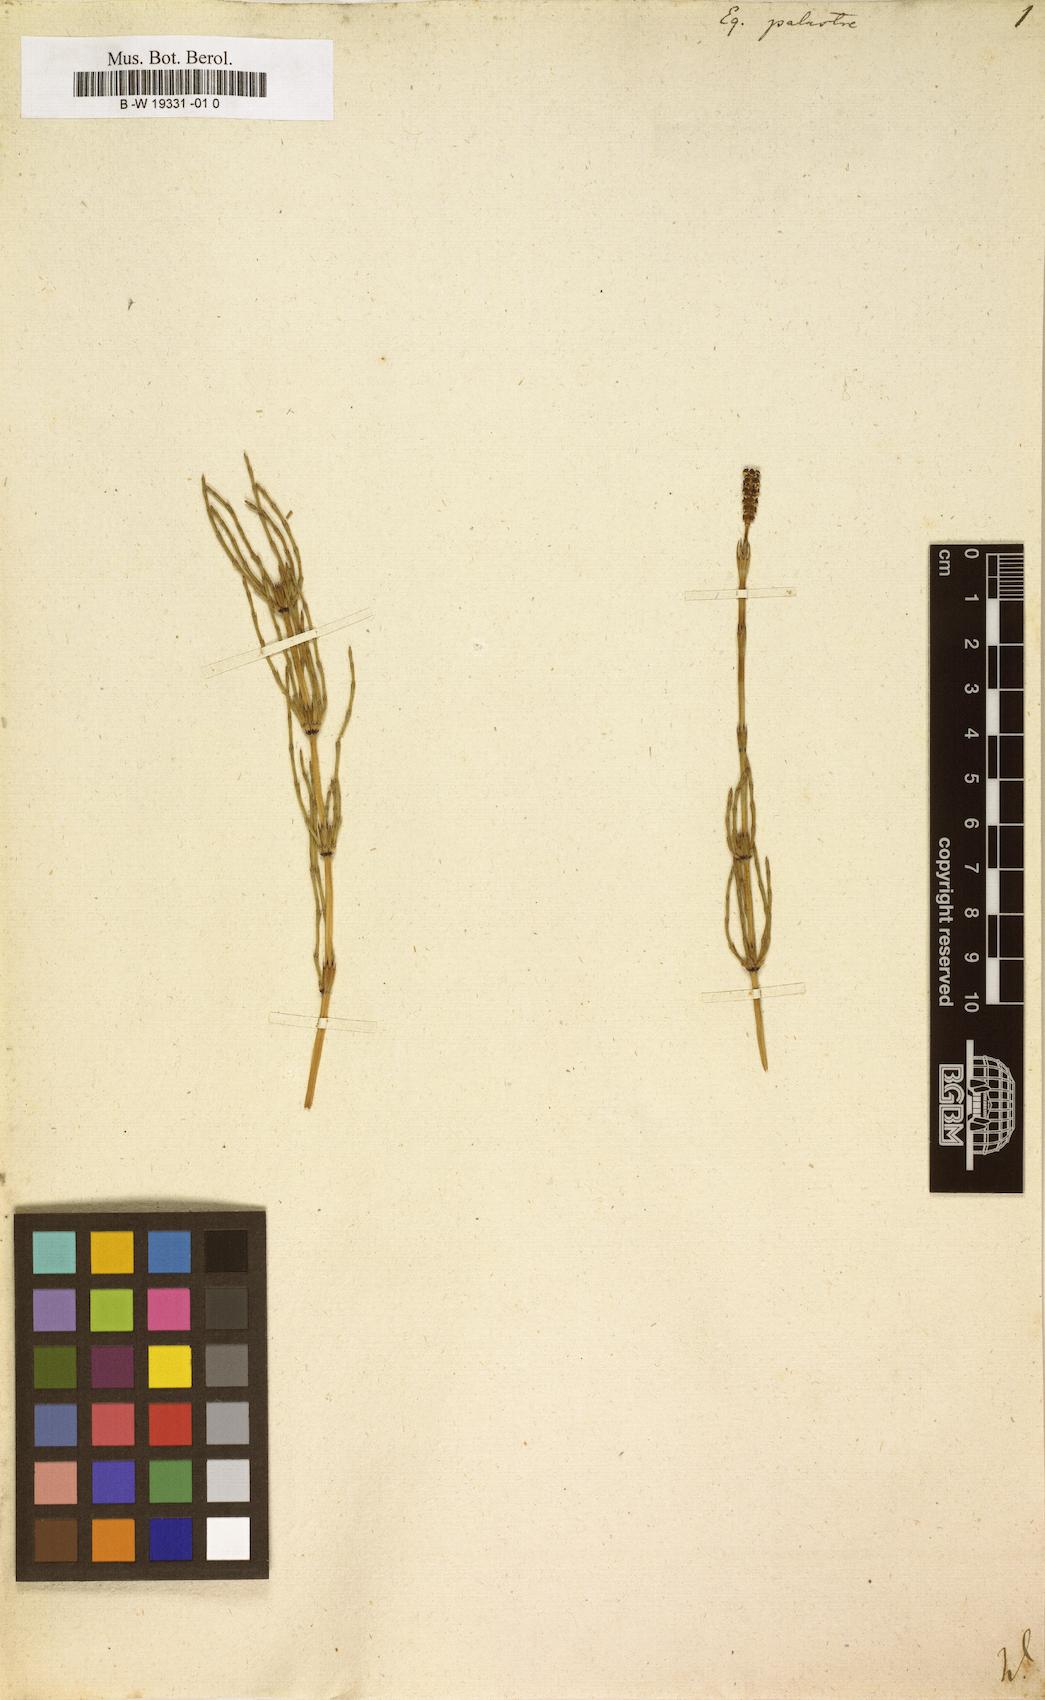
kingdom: Plantae
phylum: Tracheophyta
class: Polypodiopsida
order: Equisetales
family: Equisetaceae
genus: Equisetum
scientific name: Equisetum palustre
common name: Marsh horsetail
